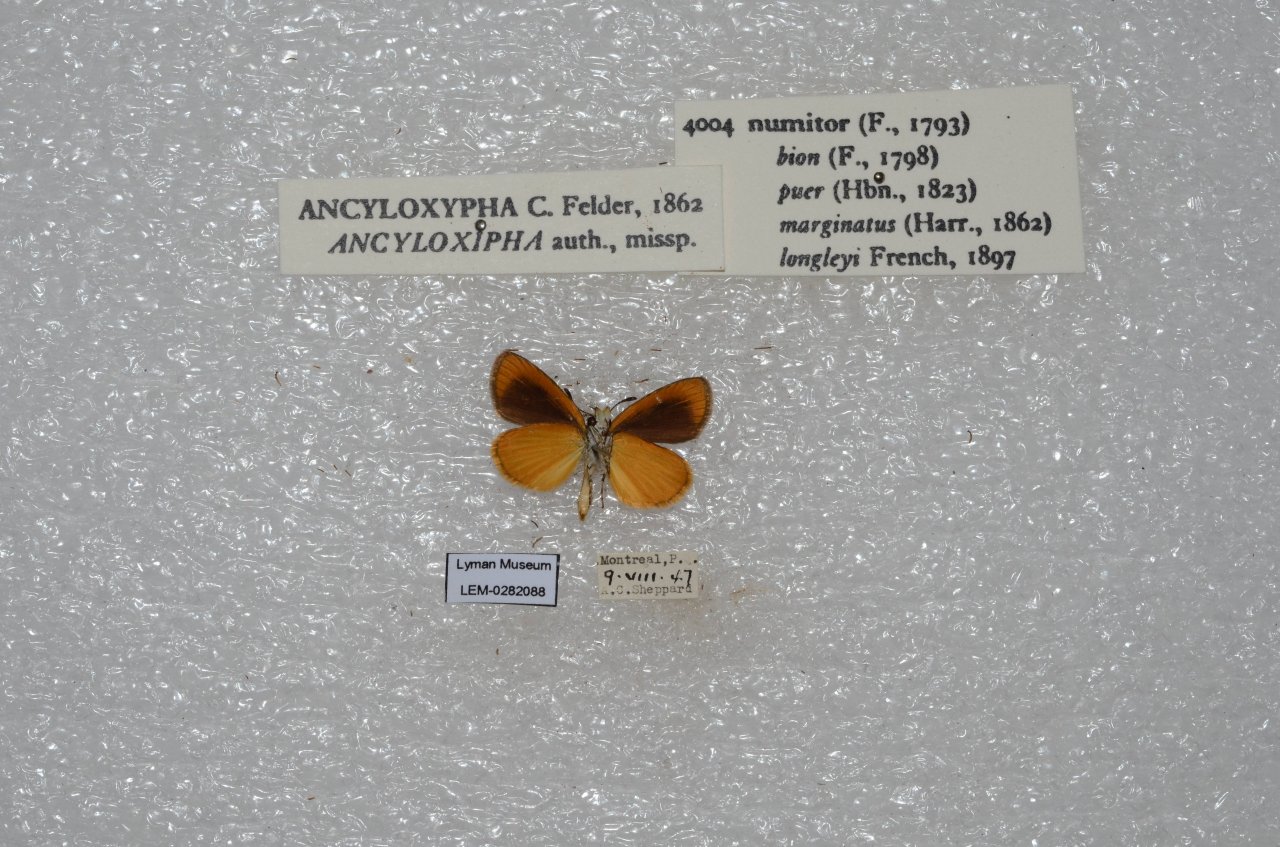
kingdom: Animalia
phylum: Arthropoda
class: Insecta
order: Lepidoptera
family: Hesperiidae
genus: Ancyloxypha
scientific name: Ancyloxypha numitor
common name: Least Skipper
